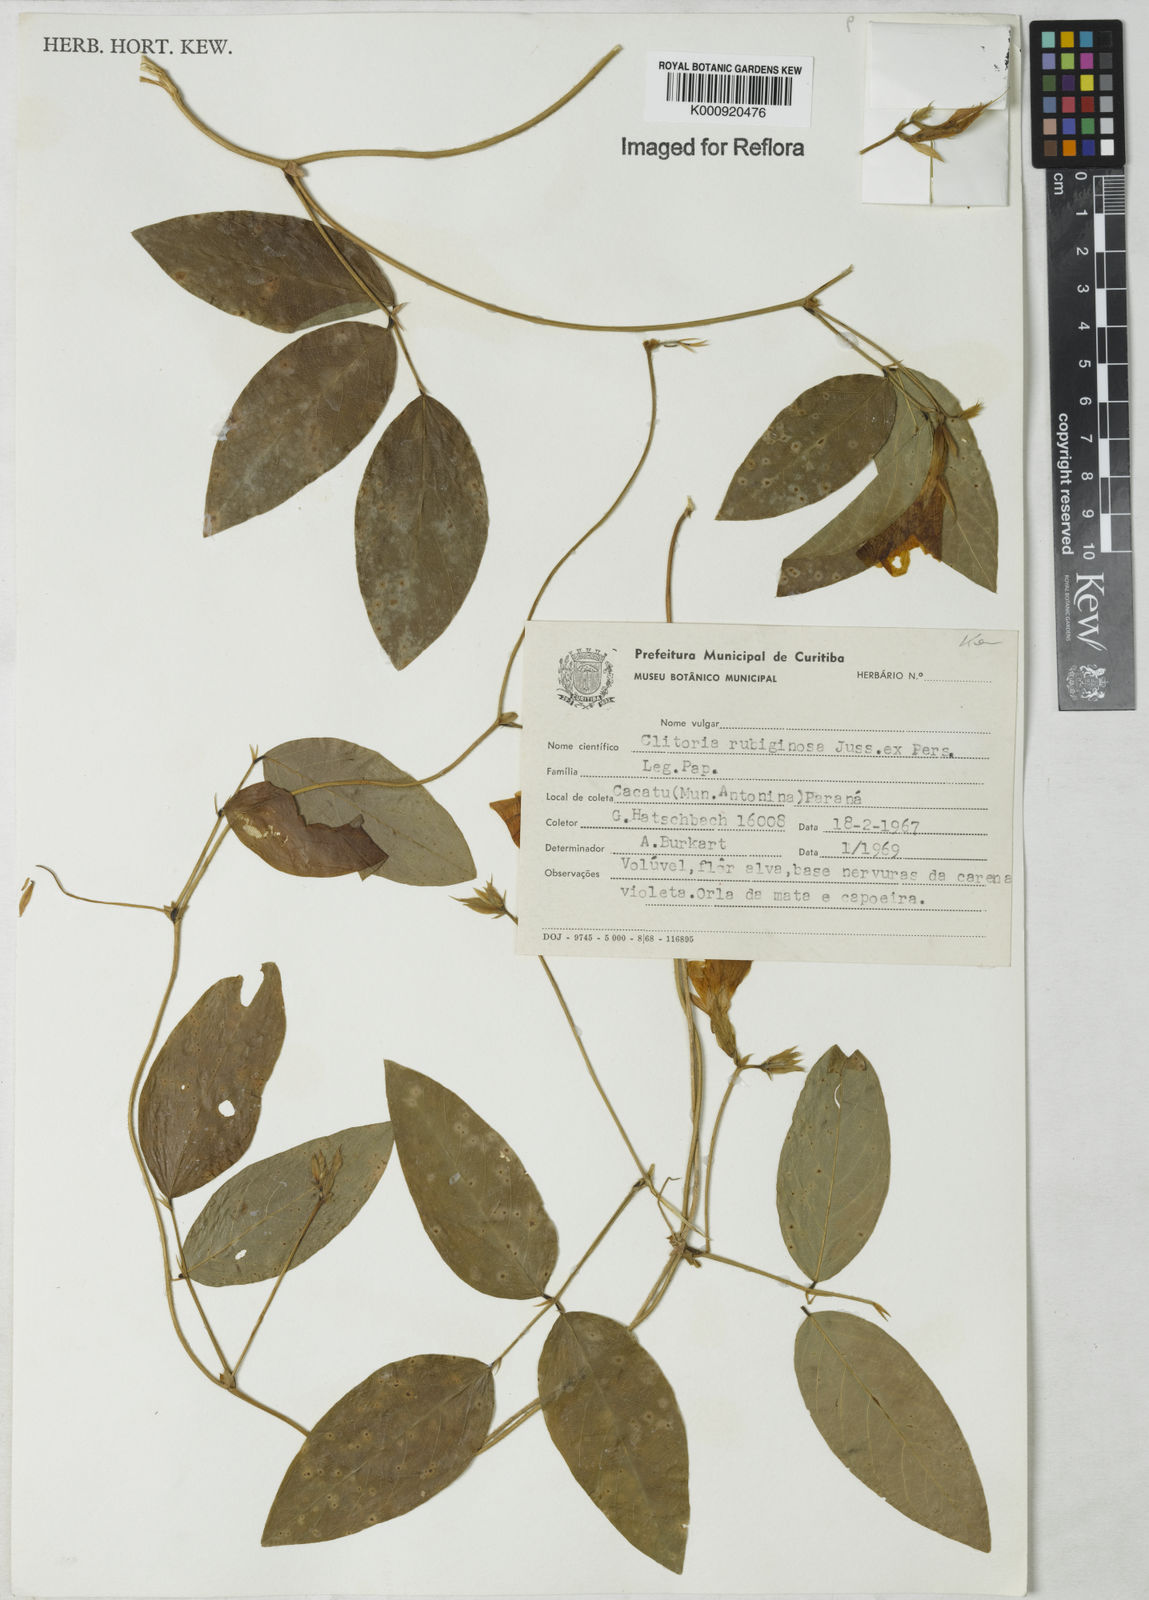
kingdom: Plantae
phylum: Tracheophyta
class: Magnoliopsida
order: Fabales
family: Fabaceae
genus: Clitoria
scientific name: Clitoria
